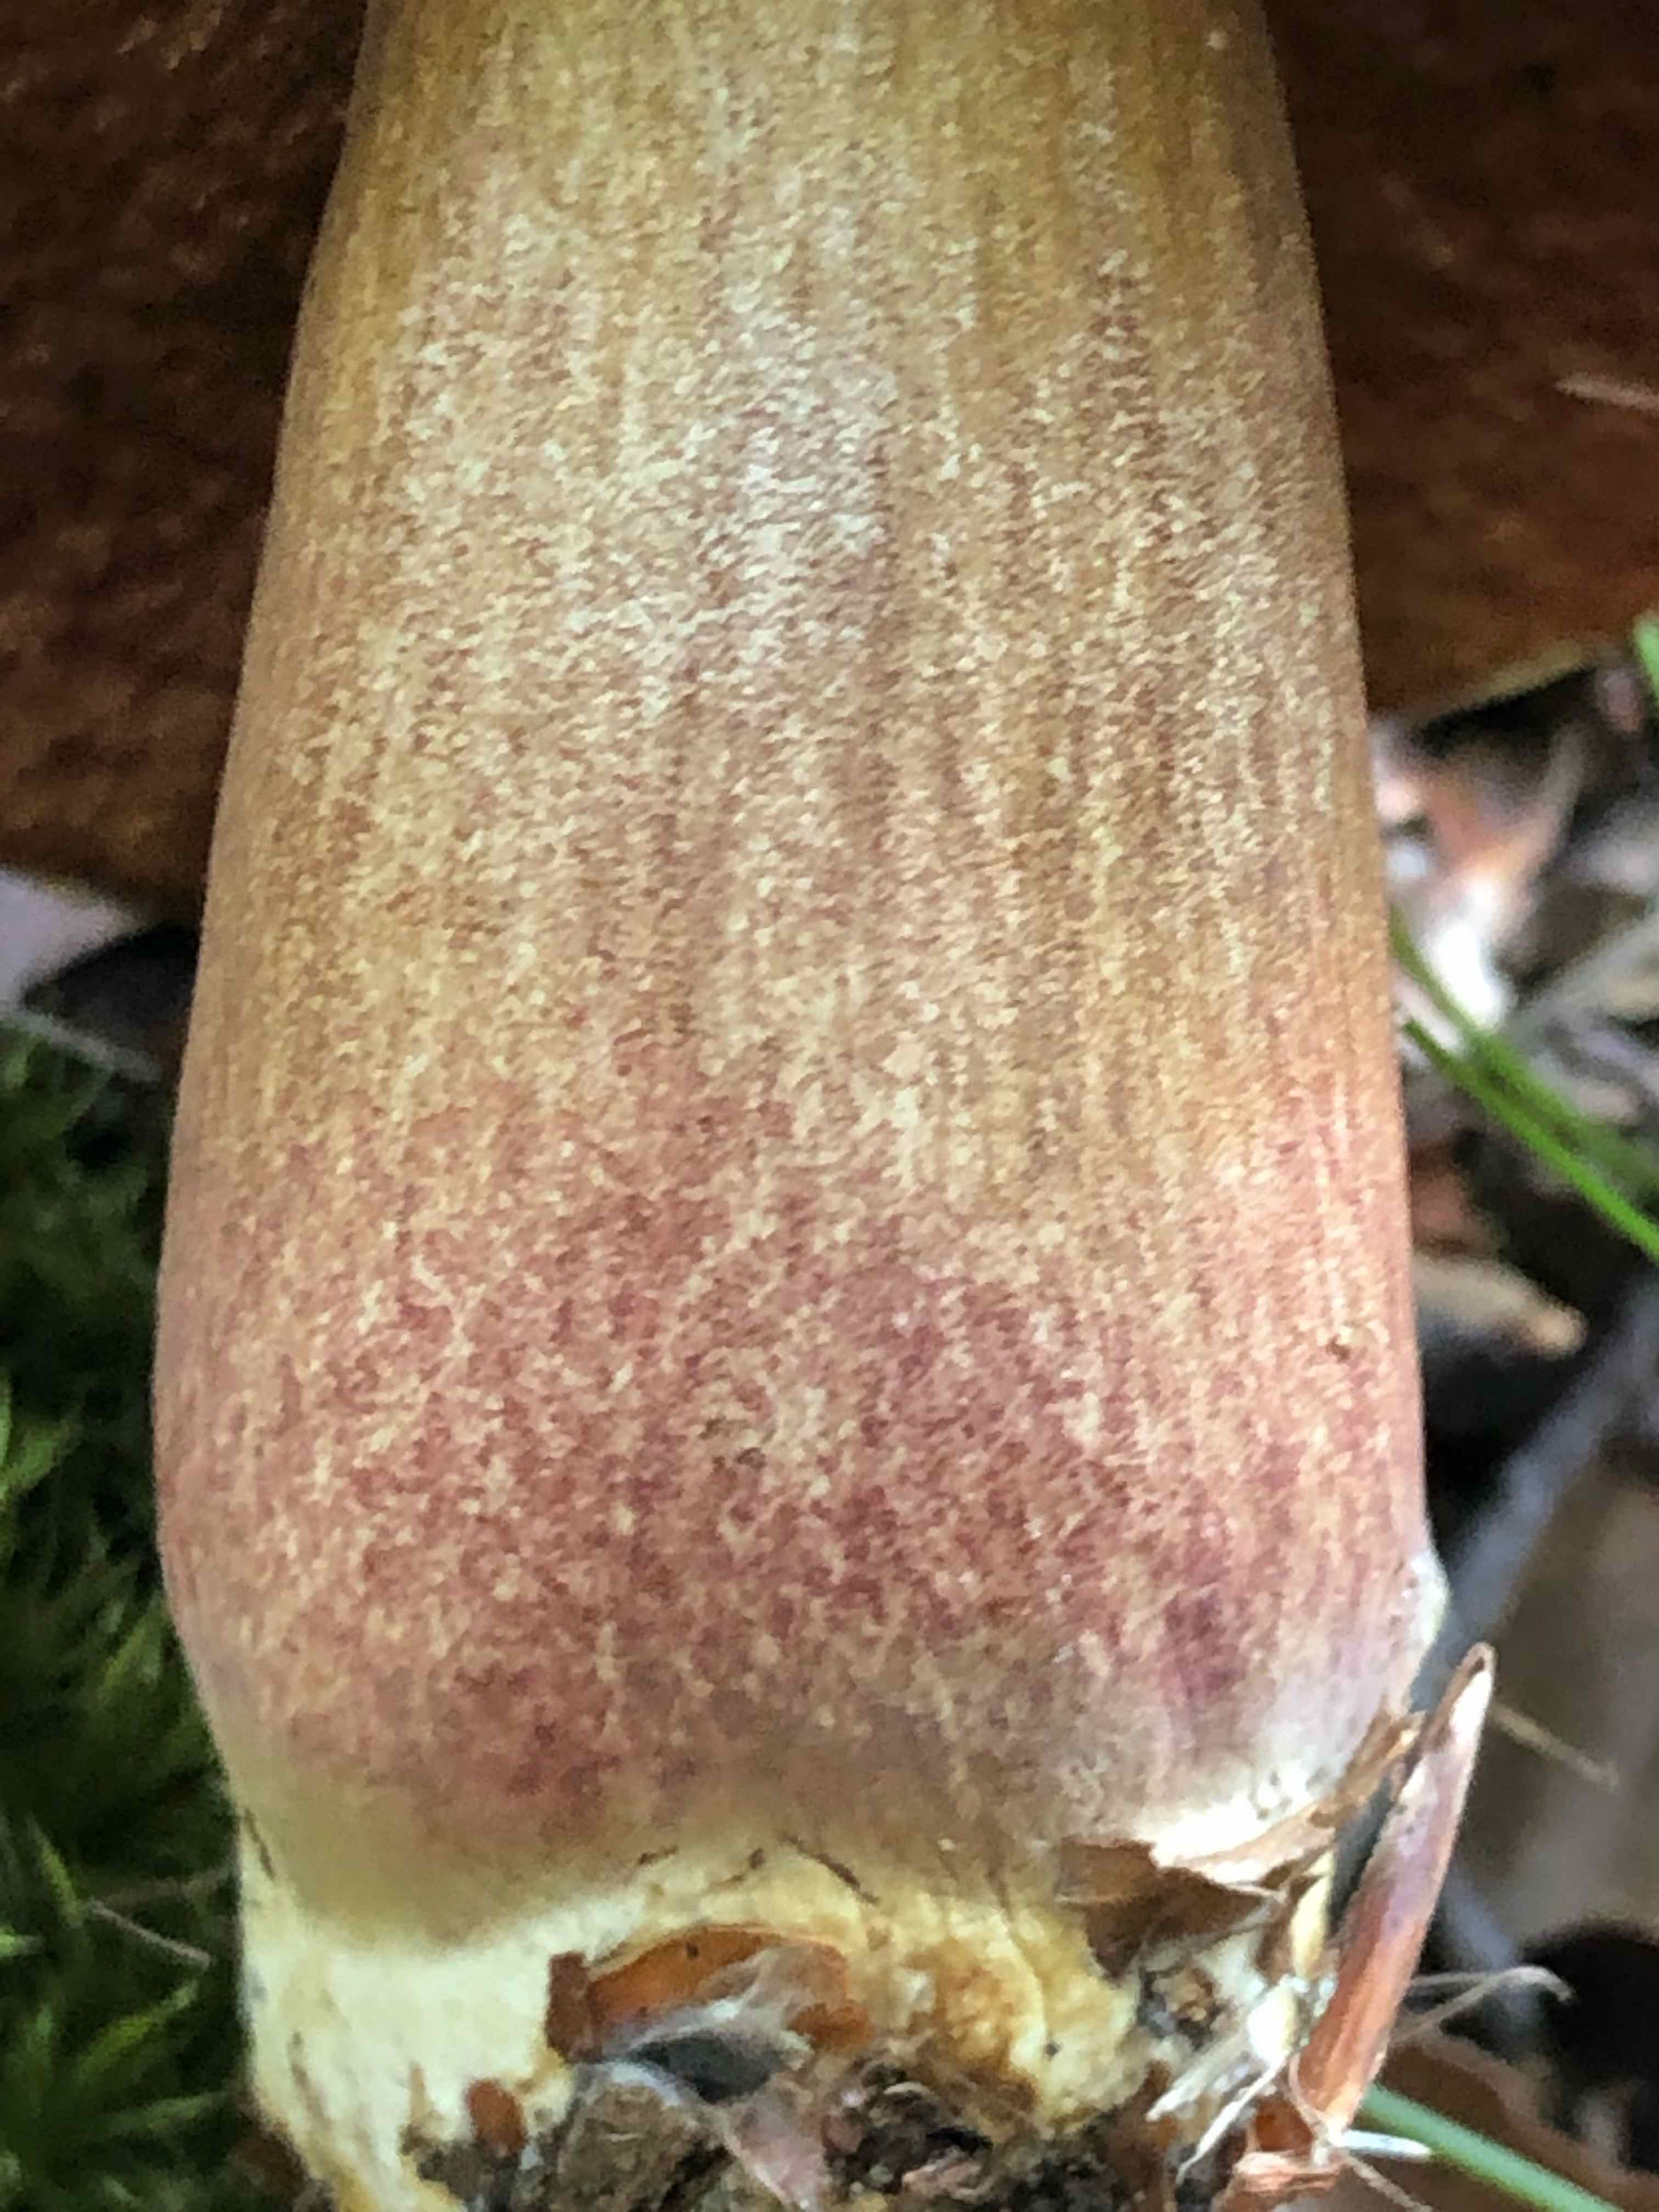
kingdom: Fungi
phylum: Basidiomycota
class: Agaricomycetes
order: Boletales
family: Boletaceae
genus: Neoboletus
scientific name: Neoboletus erythropus
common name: punktstokket indigorørhat
